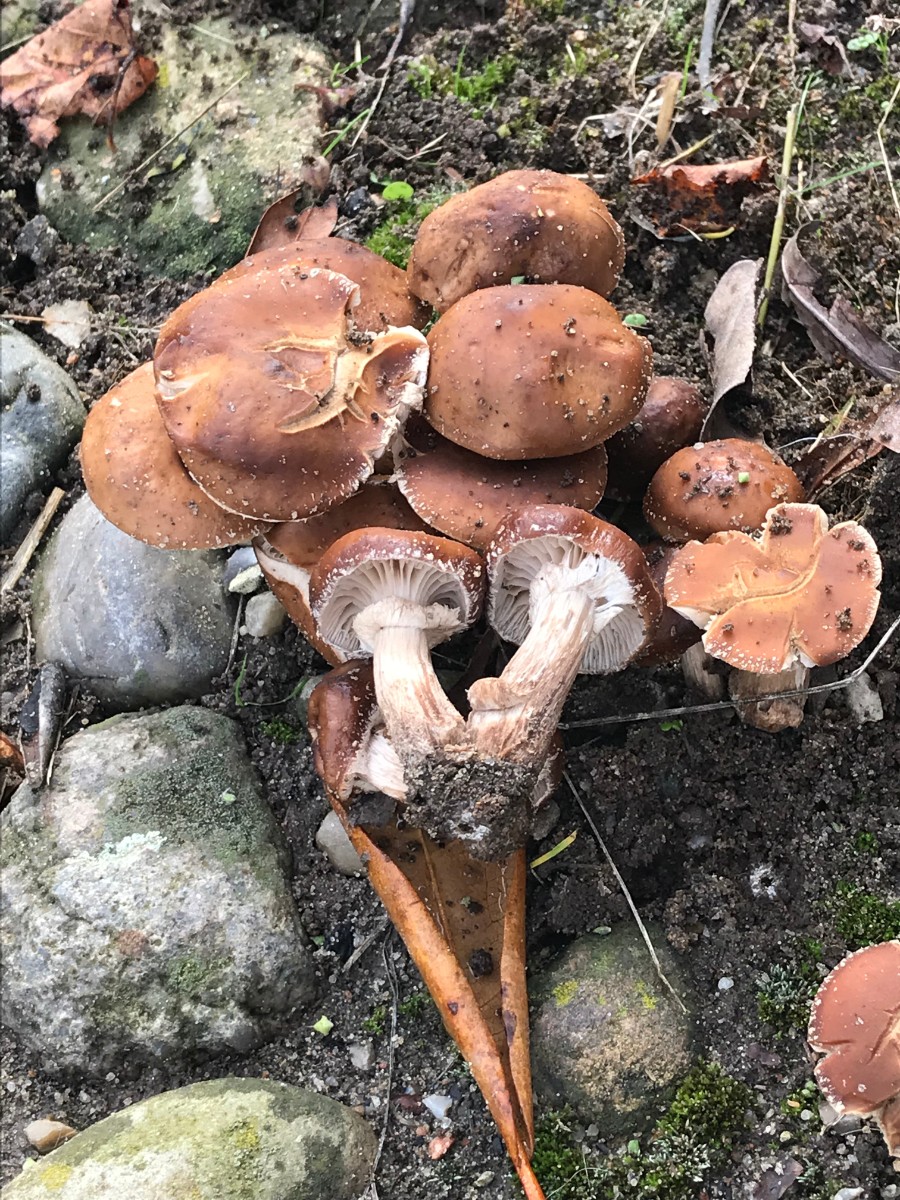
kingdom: Fungi
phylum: Basidiomycota
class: Agaricomycetes
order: Agaricales
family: Tubariaceae
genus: Cyclocybe
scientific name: Cyclocybe erebia
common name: mørk agerhat
